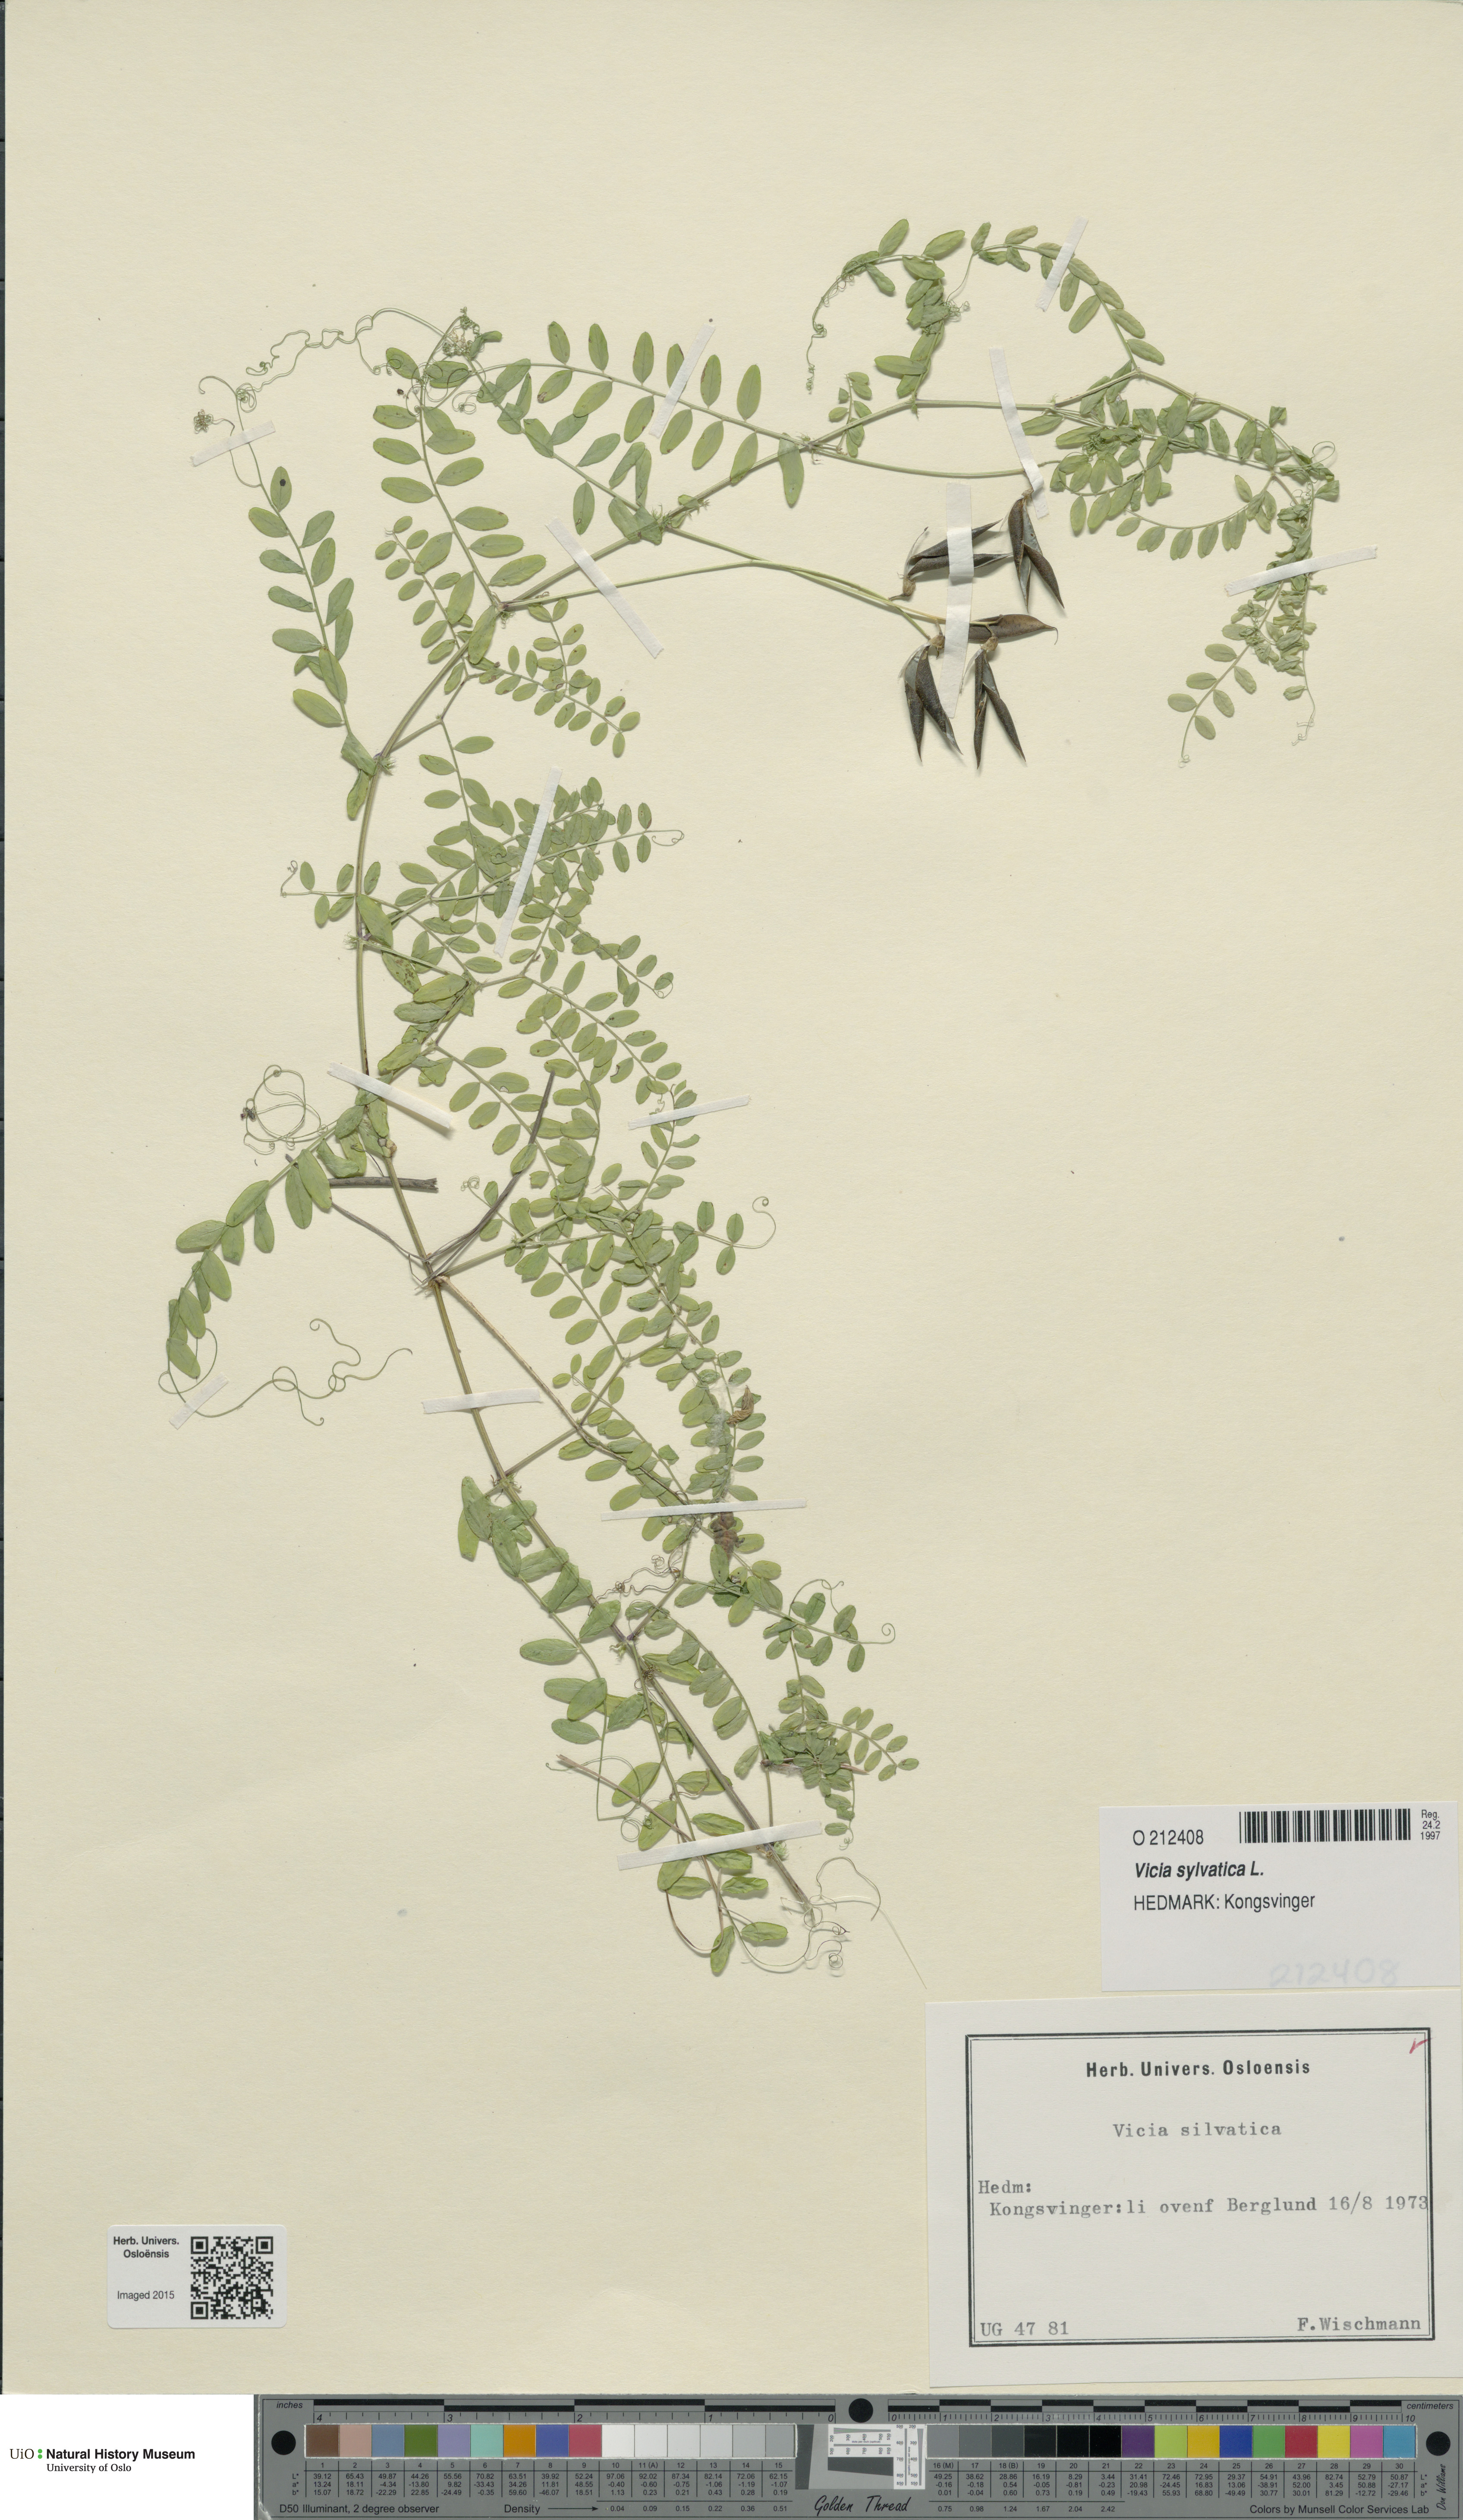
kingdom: Plantae
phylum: Tracheophyta
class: Magnoliopsida
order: Fabales
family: Fabaceae
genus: Vicia
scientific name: Vicia sylvatica
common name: Wood vetch
